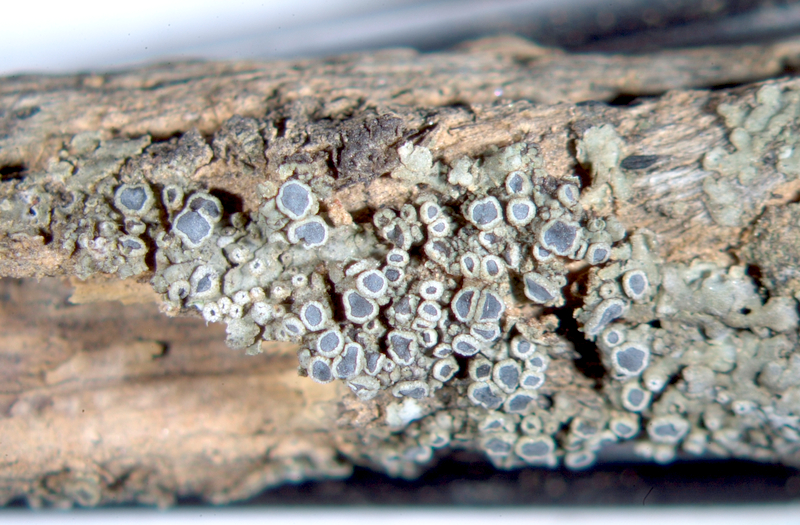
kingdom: Fungi
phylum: Ascomycota
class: Lecanoromycetes
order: Caliciales
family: Caliciaceae
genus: Dirinaria
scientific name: Dirinaria complicata
